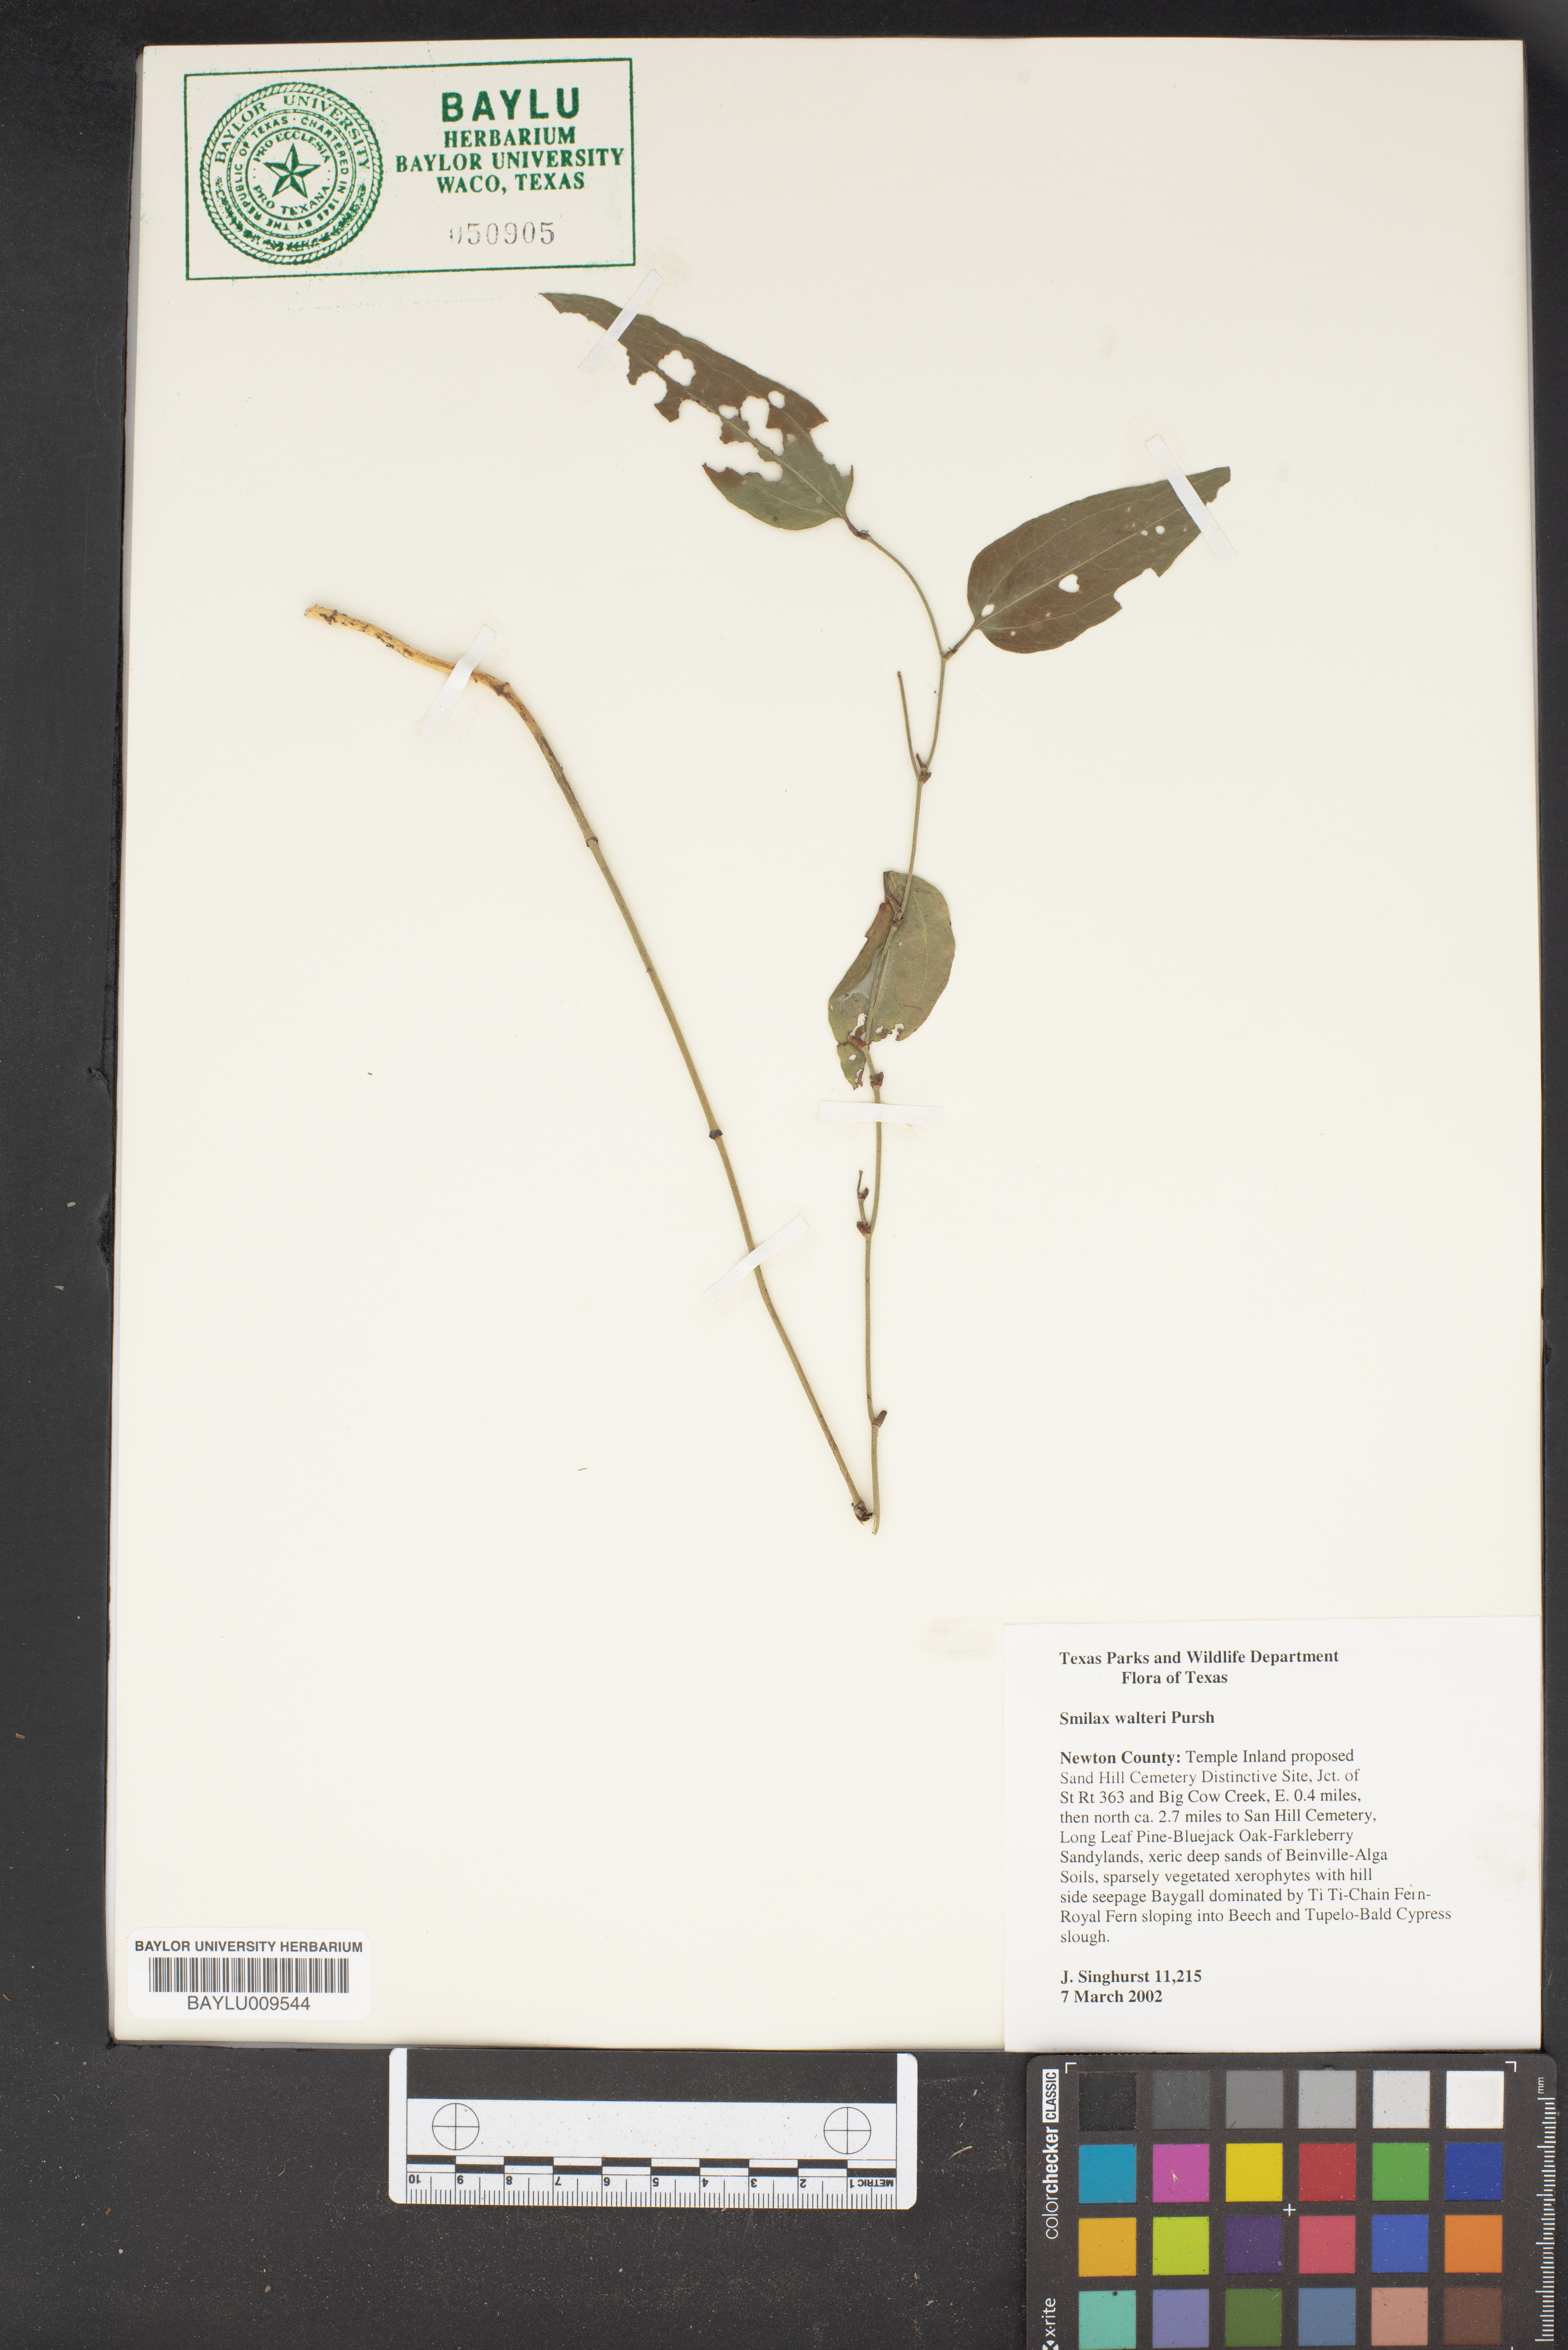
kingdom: Plantae
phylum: Tracheophyta
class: Liliopsida
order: Liliales
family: Smilacaceae
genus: Smilax
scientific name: Smilax walteri
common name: Coral greenbrier
